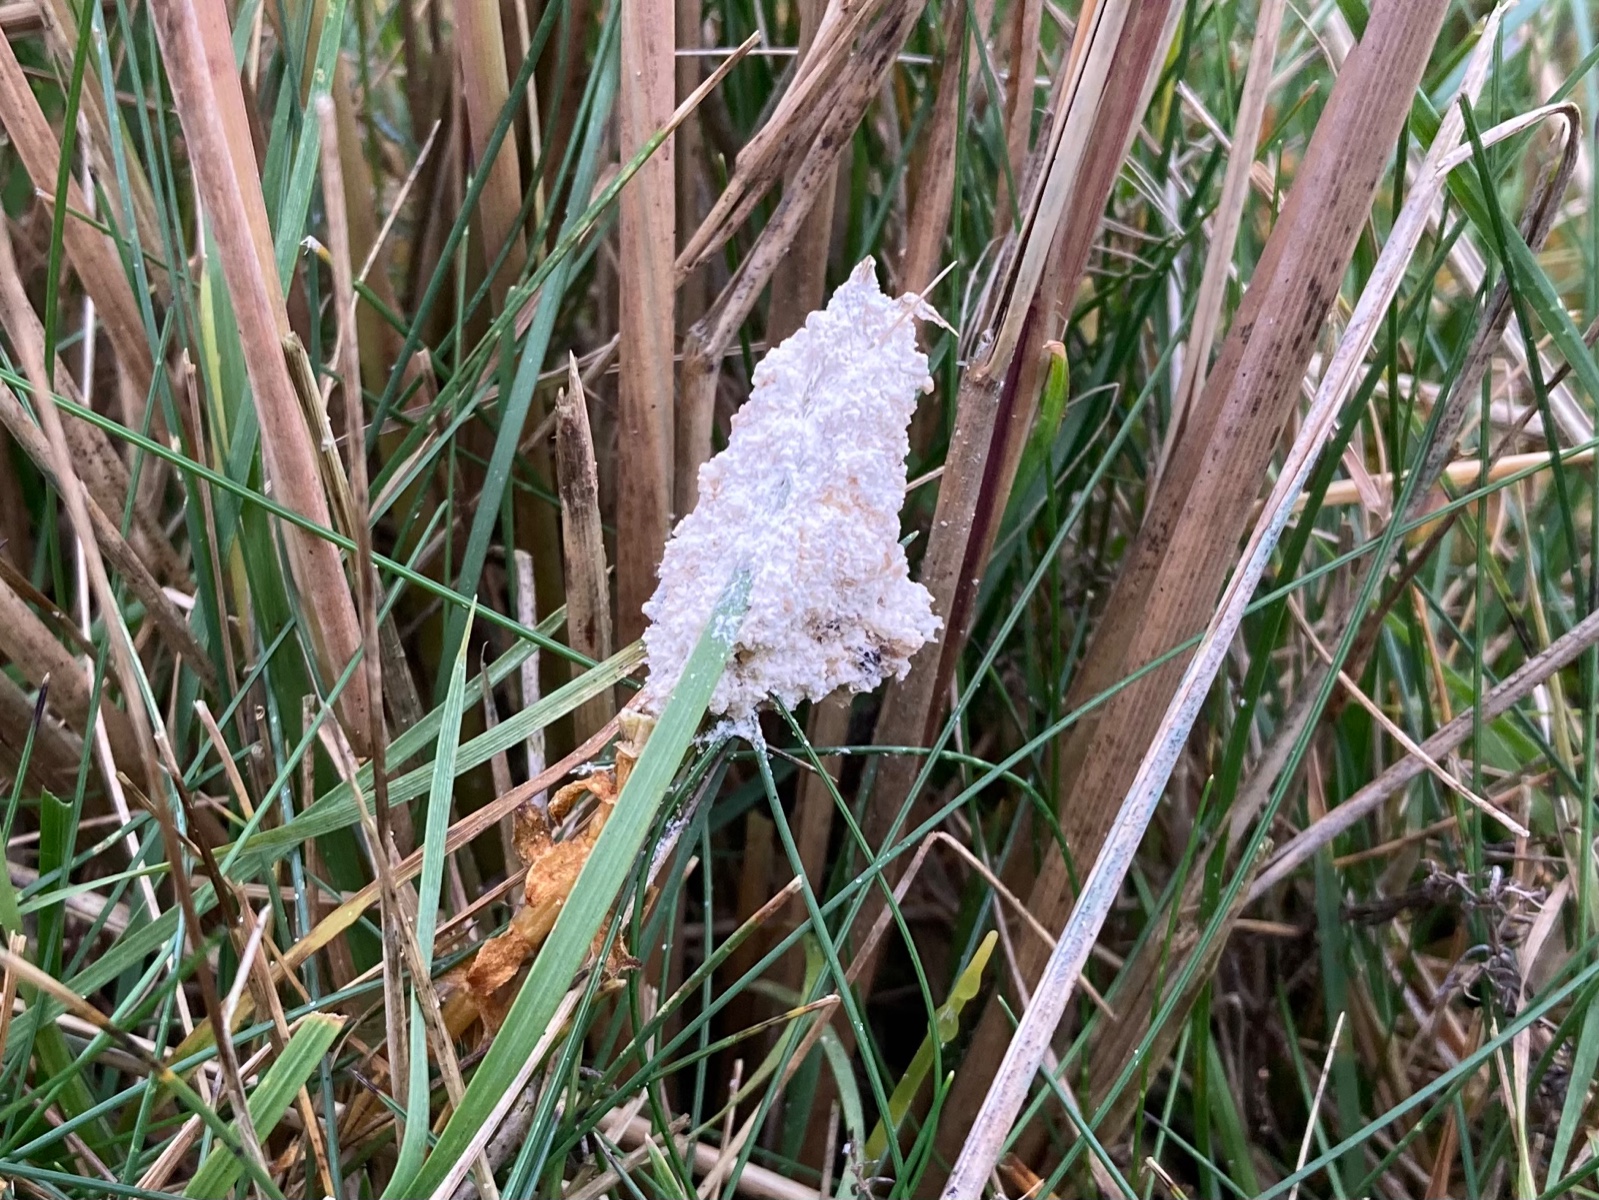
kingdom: Protozoa
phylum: Mycetozoa
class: Myxomycetes
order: Physarales
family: Physaraceae
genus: Didymium
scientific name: Didymium
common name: urteskum
